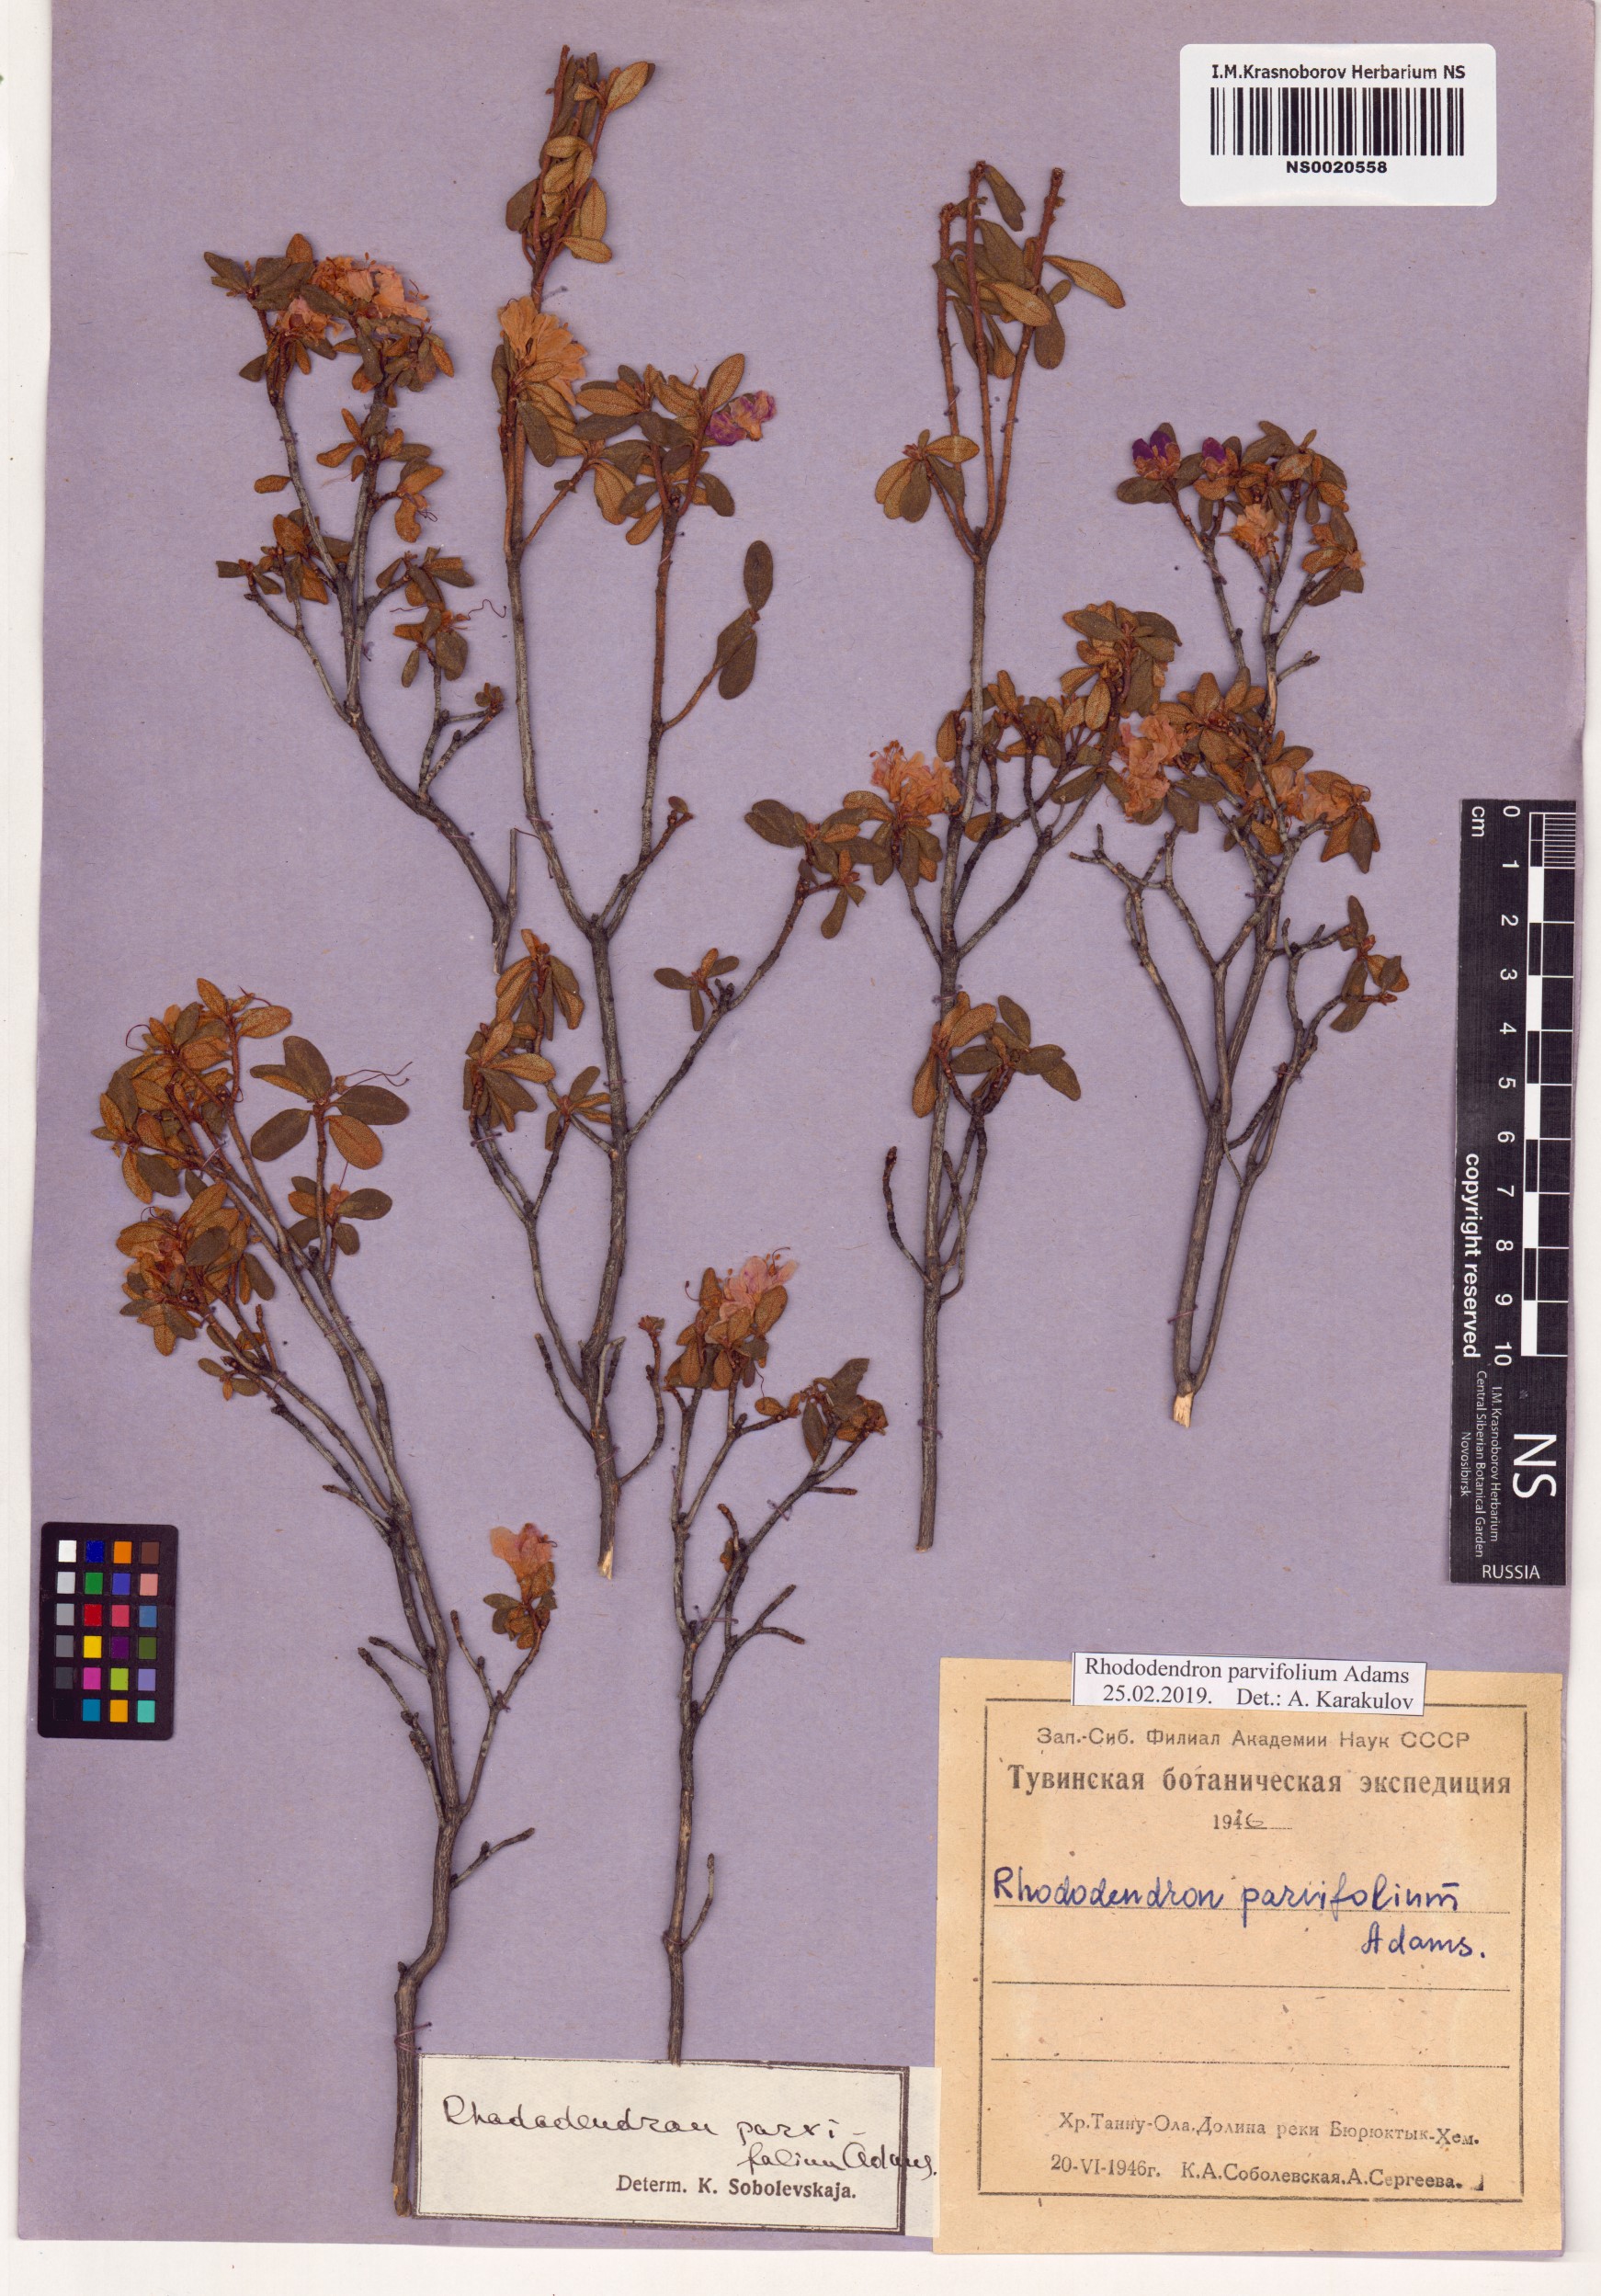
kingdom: Plantae
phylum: Tracheophyta
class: Magnoliopsida
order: Ericales
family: Ericaceae
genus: Rhododendron
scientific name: Rhododendron parvifolium
